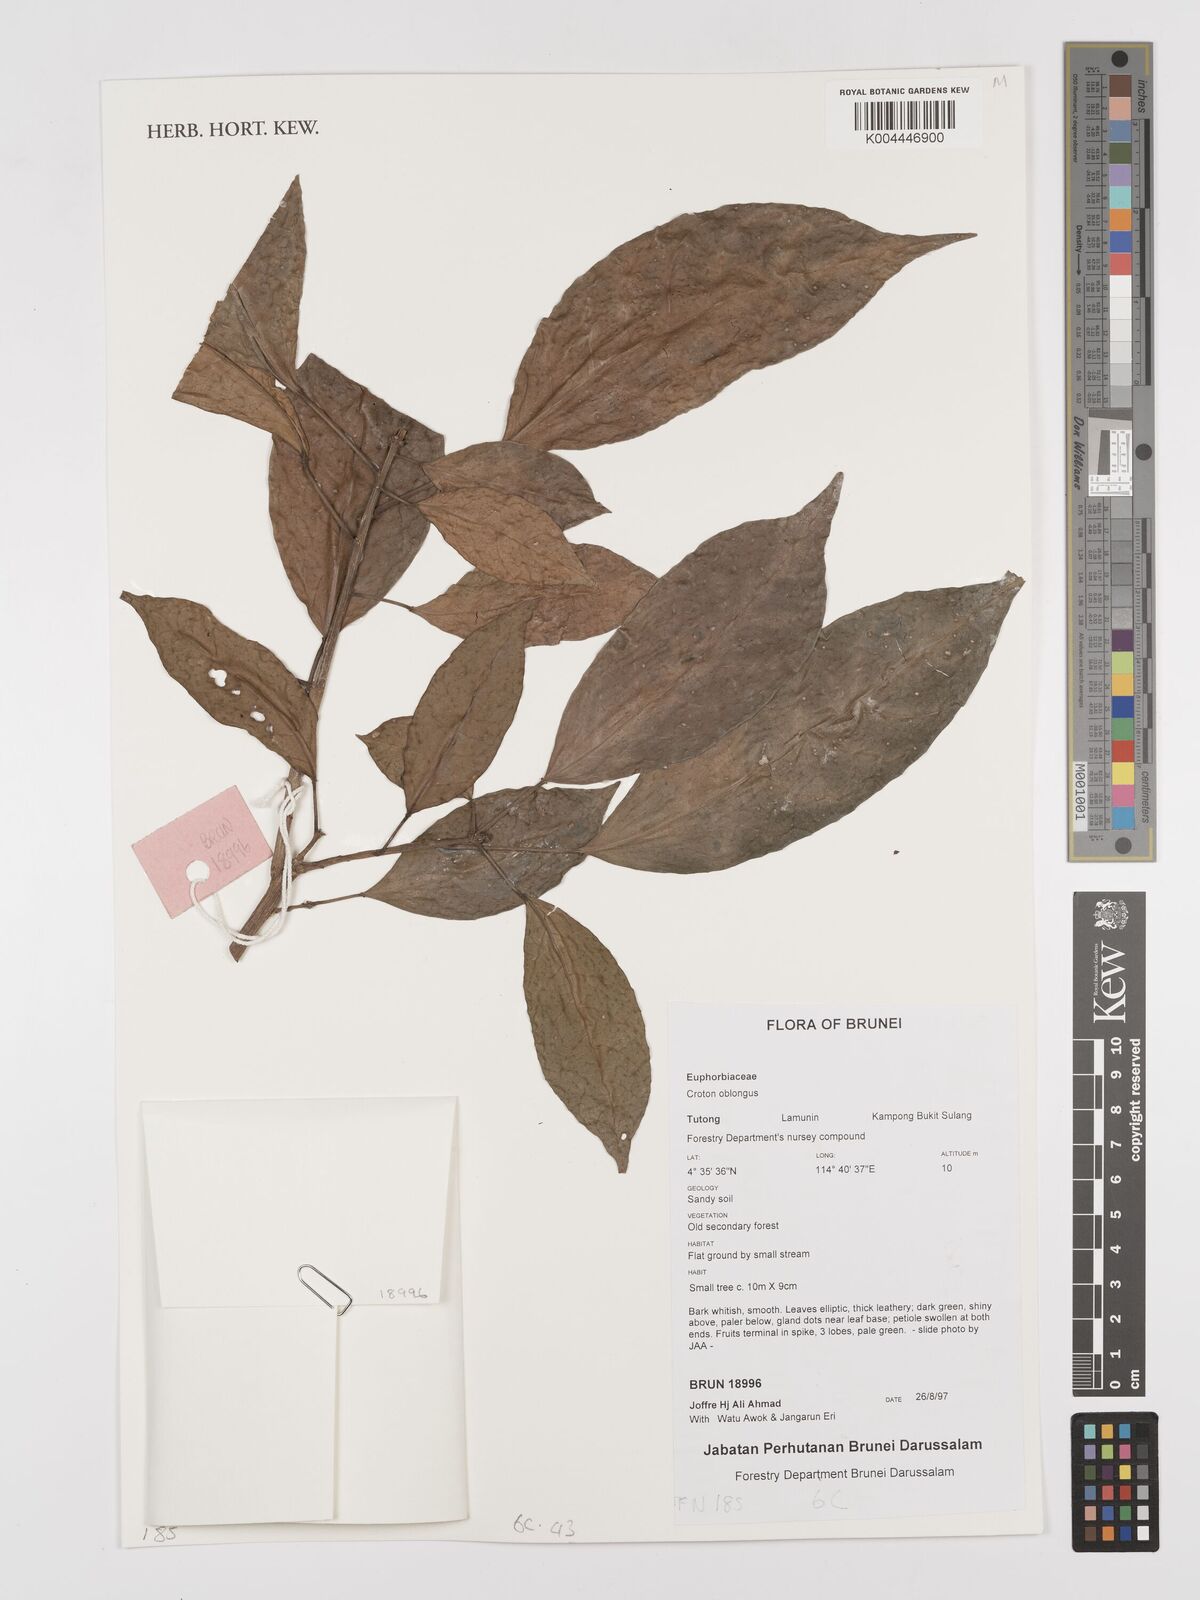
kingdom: Plantae
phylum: Tracheophyta
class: Magnoliopsida
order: Malpighiales
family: Euphorbiaceae
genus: Croton
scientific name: Croton oblongus
